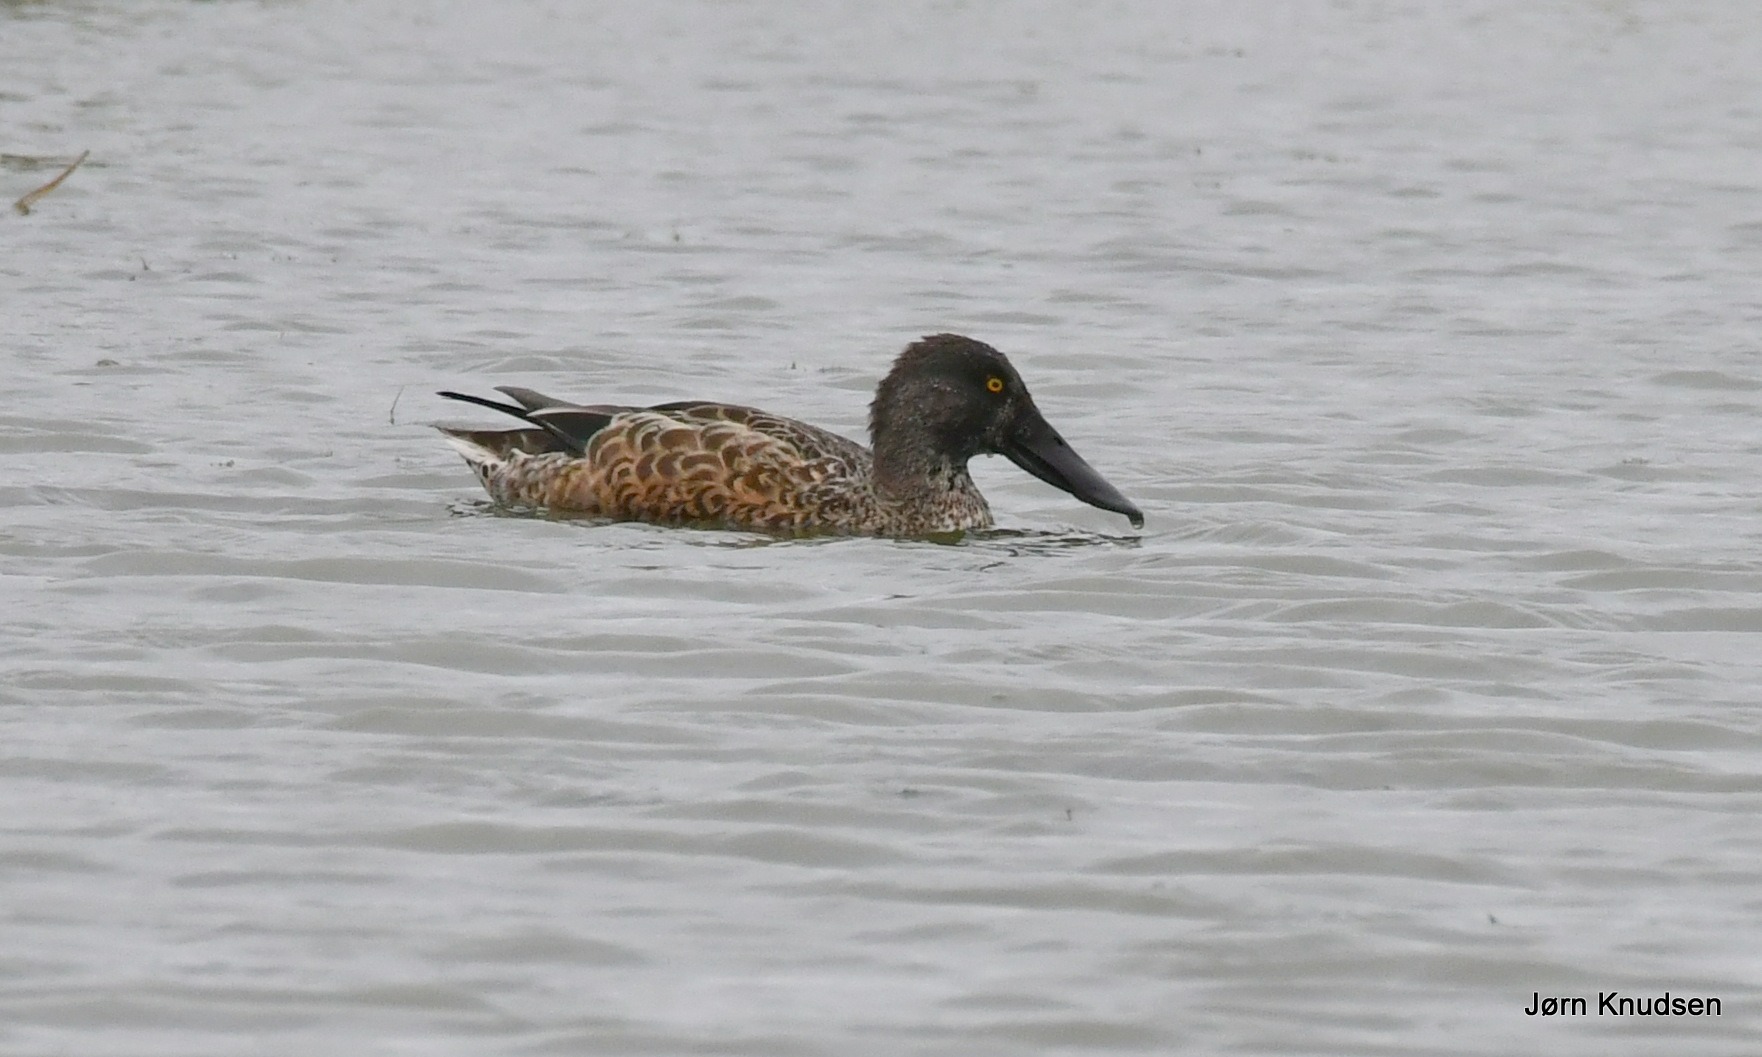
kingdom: Animalia
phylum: Chordata
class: Aves
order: Anseriformes
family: Anatidae
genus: Spatula
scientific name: Spatula clypeata
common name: Skeand
